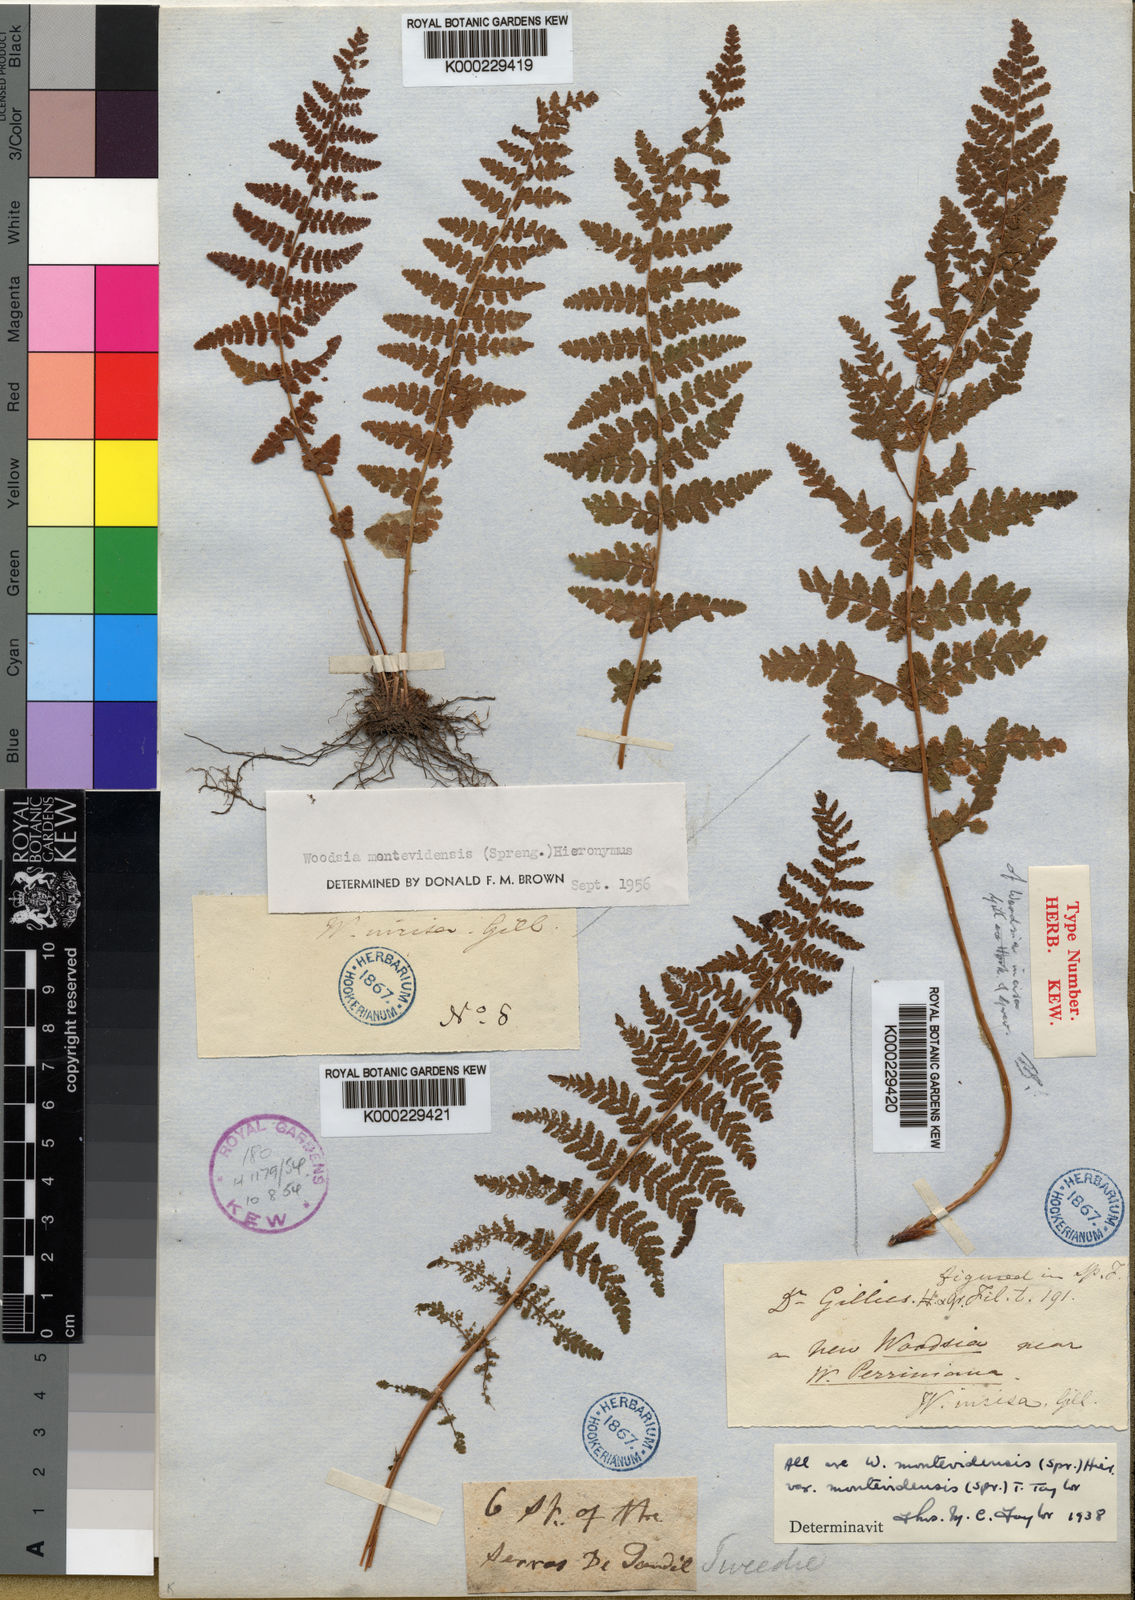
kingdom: Plantae
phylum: Tracheophyta
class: Polypodiopsida
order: Polypodiales
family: Woodsiaceae
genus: Physematium
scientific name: Physematium montevidense
